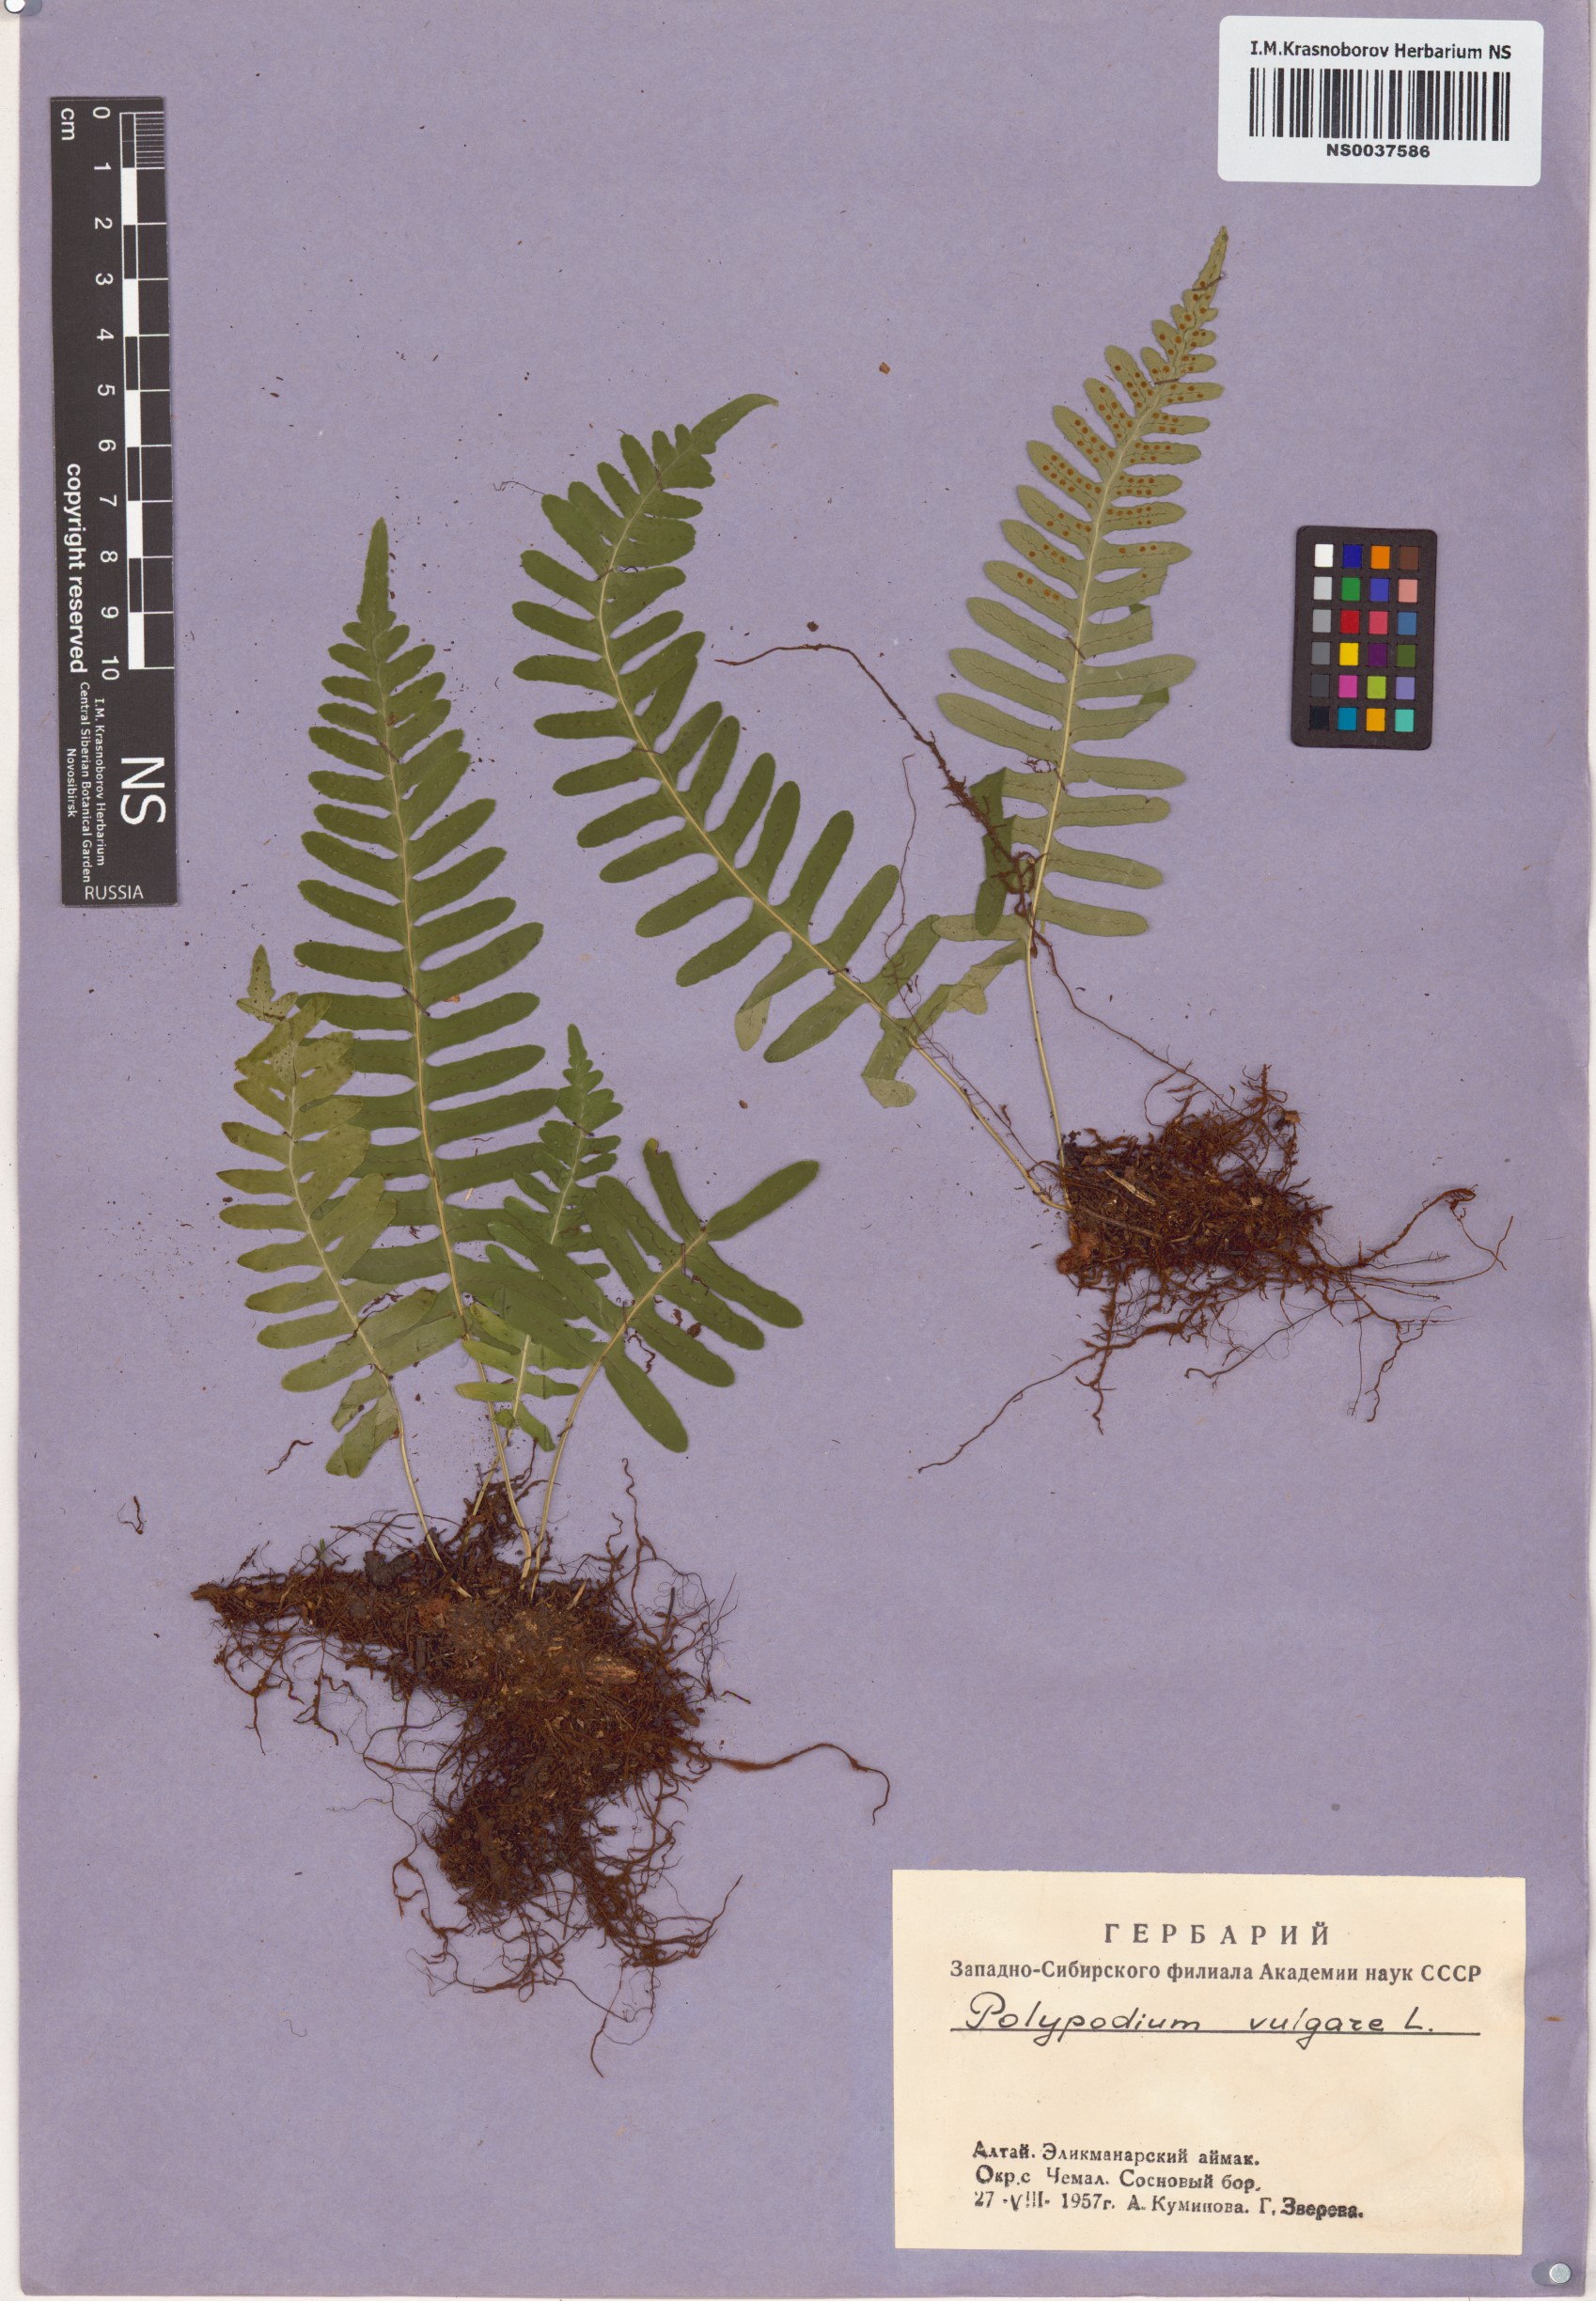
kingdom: Plantae
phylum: Tracheophyta
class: Polypodiopsida
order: Polypodiales
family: Polypodiaceae
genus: Polypodium
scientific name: Polypodium vulgare
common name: Common polypody
